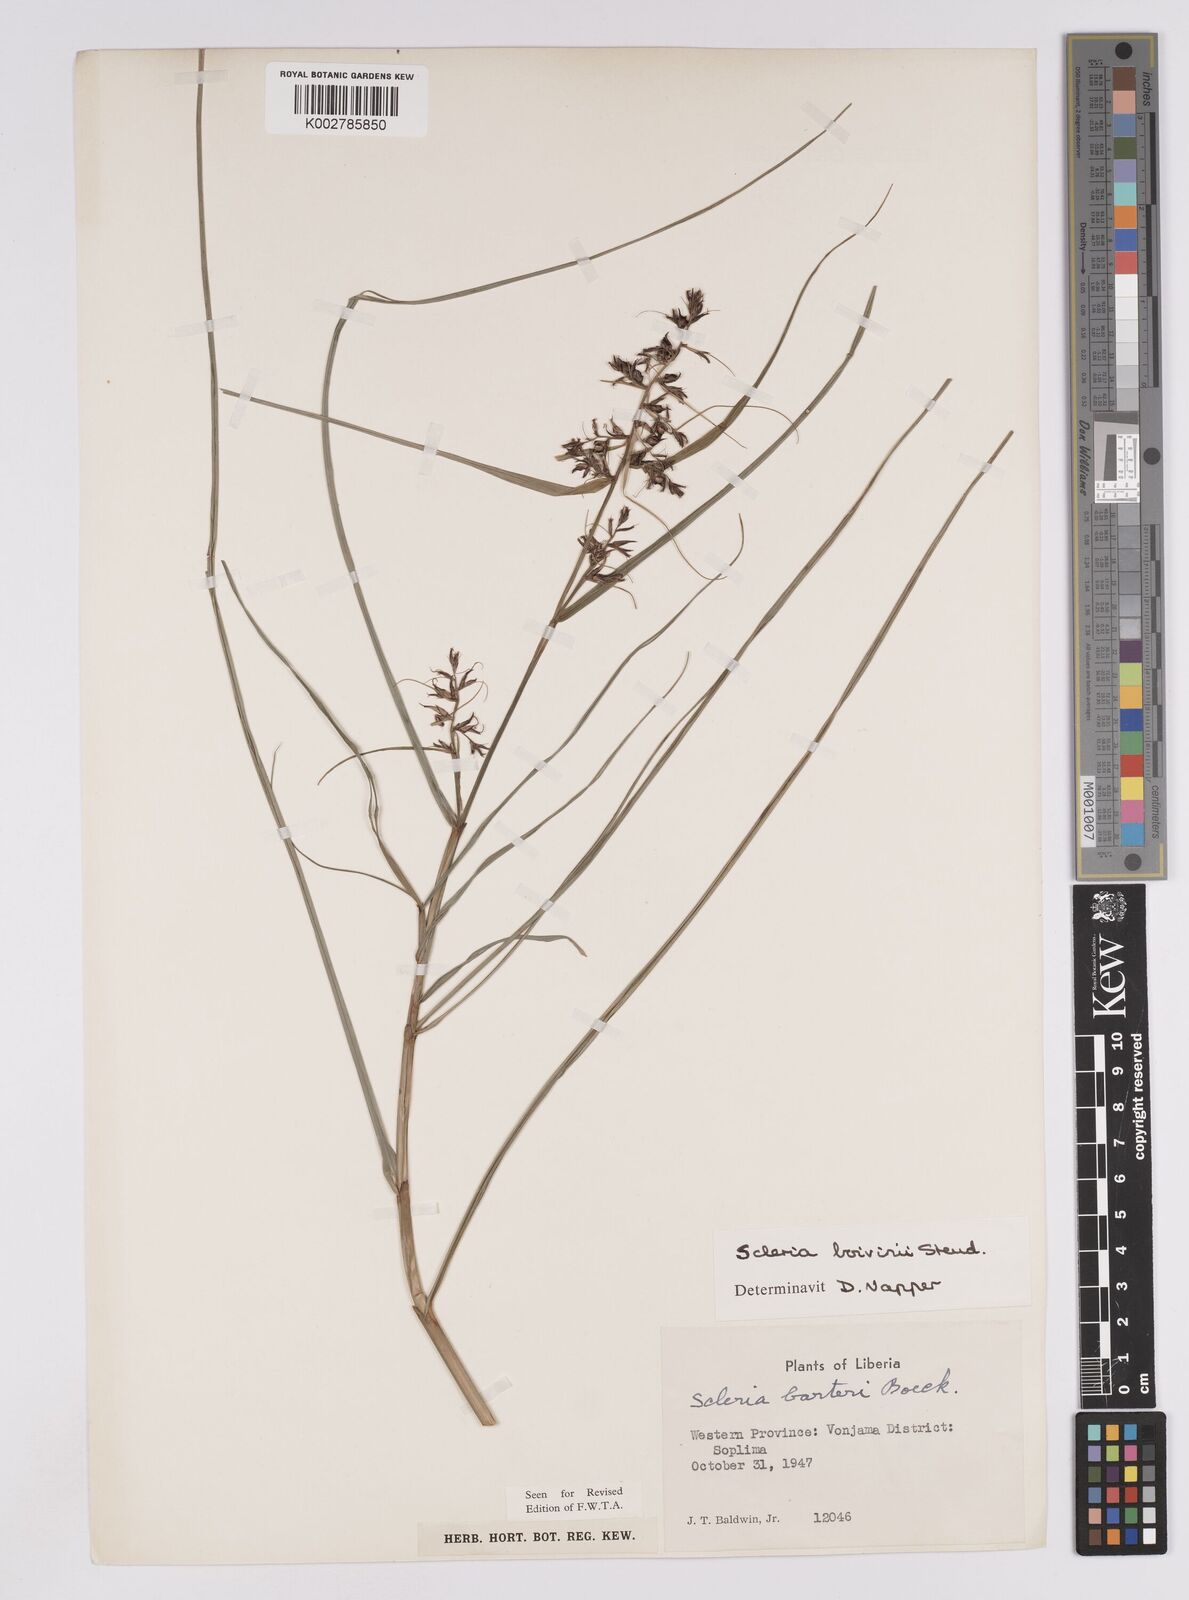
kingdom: Plantae
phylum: Tracheophyta
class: Liliopsida
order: Poales
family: Cyperaceae
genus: Scleria
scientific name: Scleria boivinii
